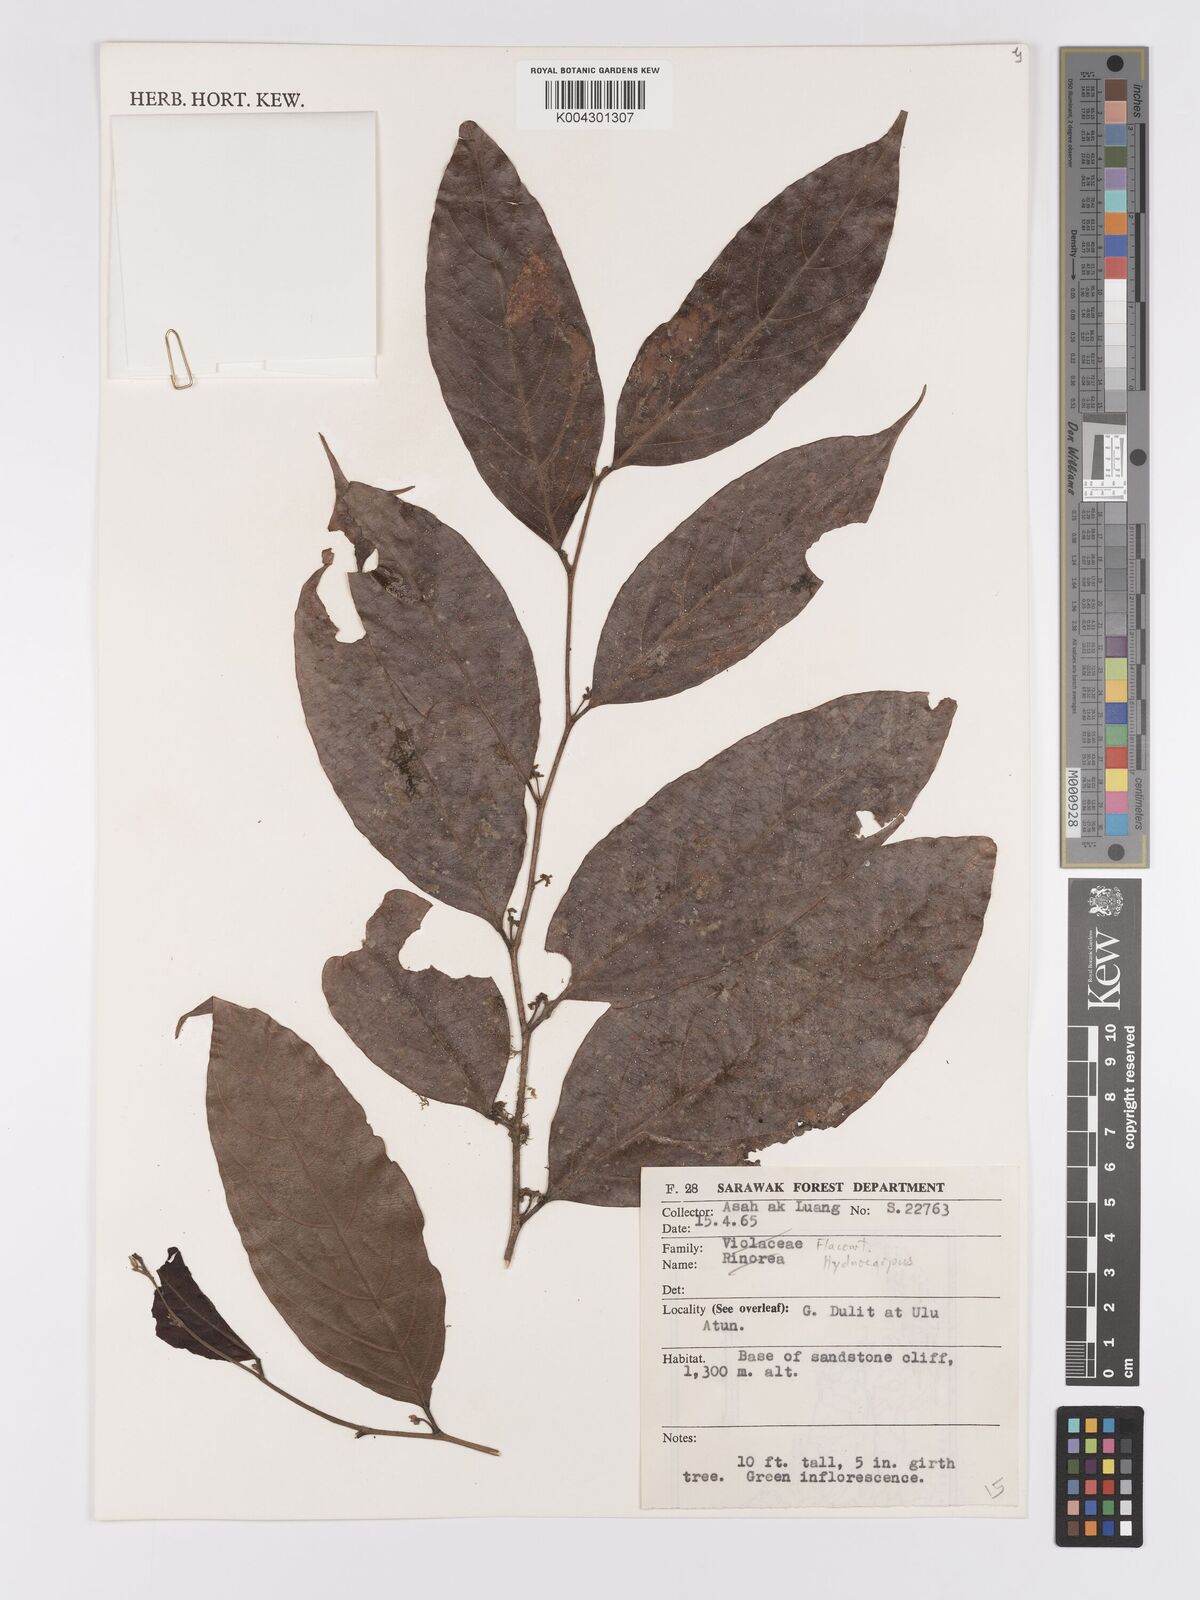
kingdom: Plantae
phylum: Tracheophyta
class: Magnoliopsida
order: Malpighiales
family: Achariaceae
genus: Hydnocarpus
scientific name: Hydnocarpus
